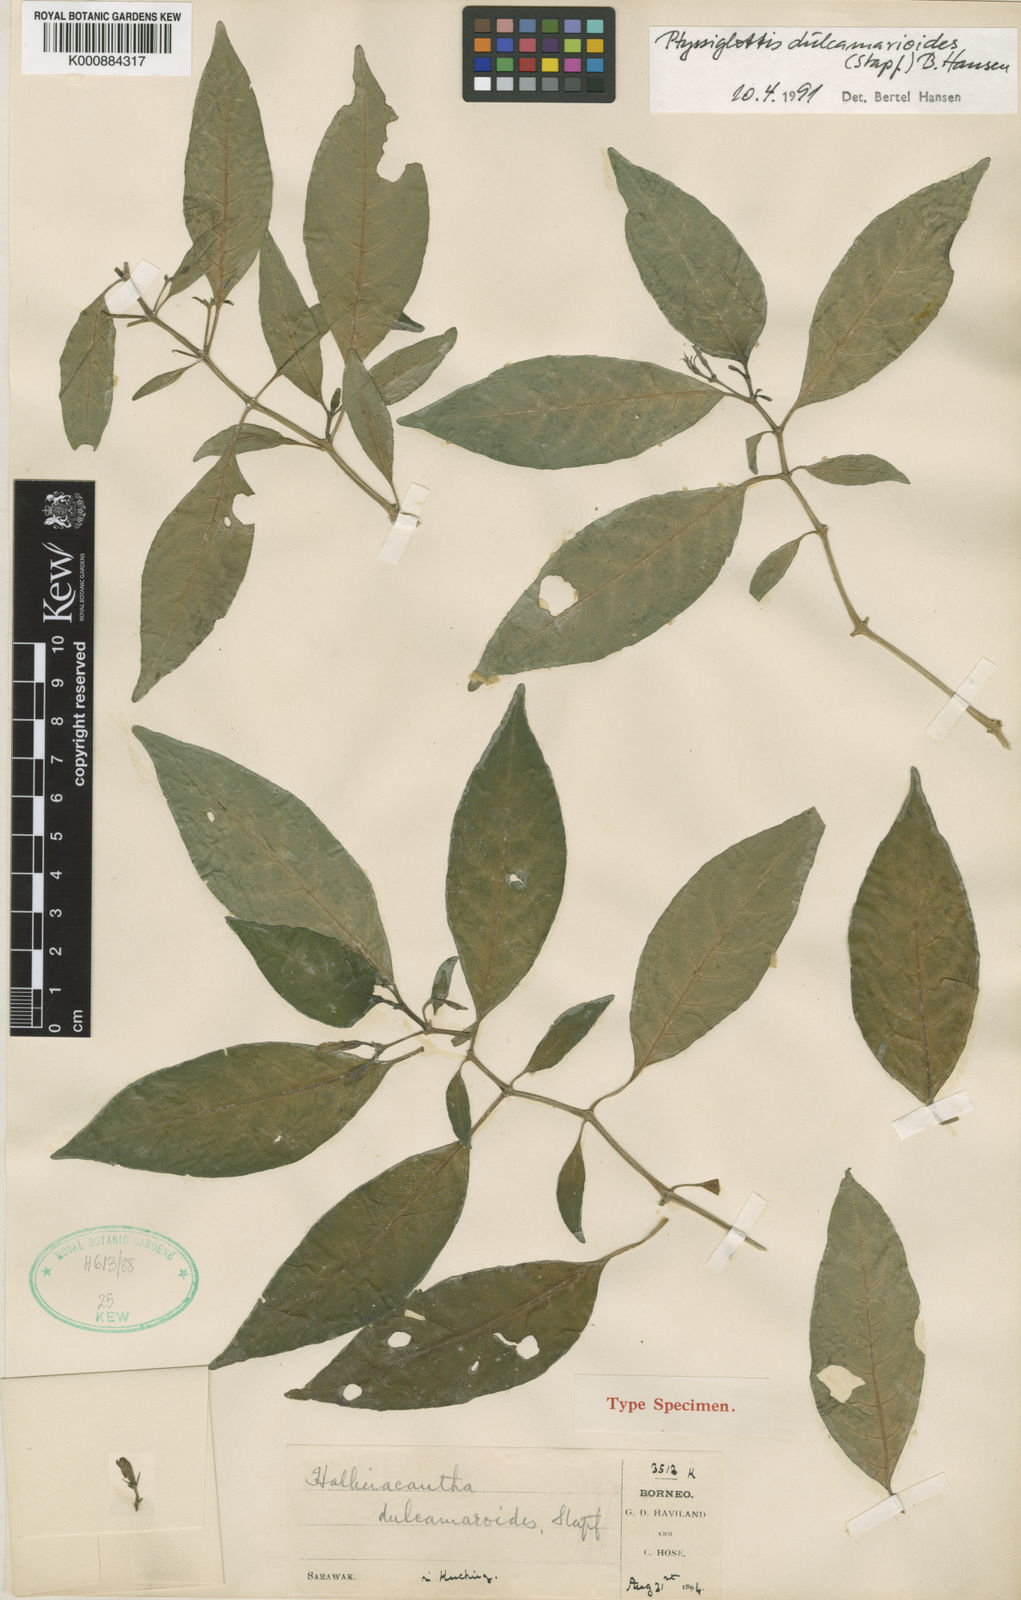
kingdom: Plantae
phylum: Tracheophyta
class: Magnoliopsida
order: Lamiales
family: Acanthaceae
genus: Ptyssiglottis
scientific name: Ptyssiglottis dulcamarioides
